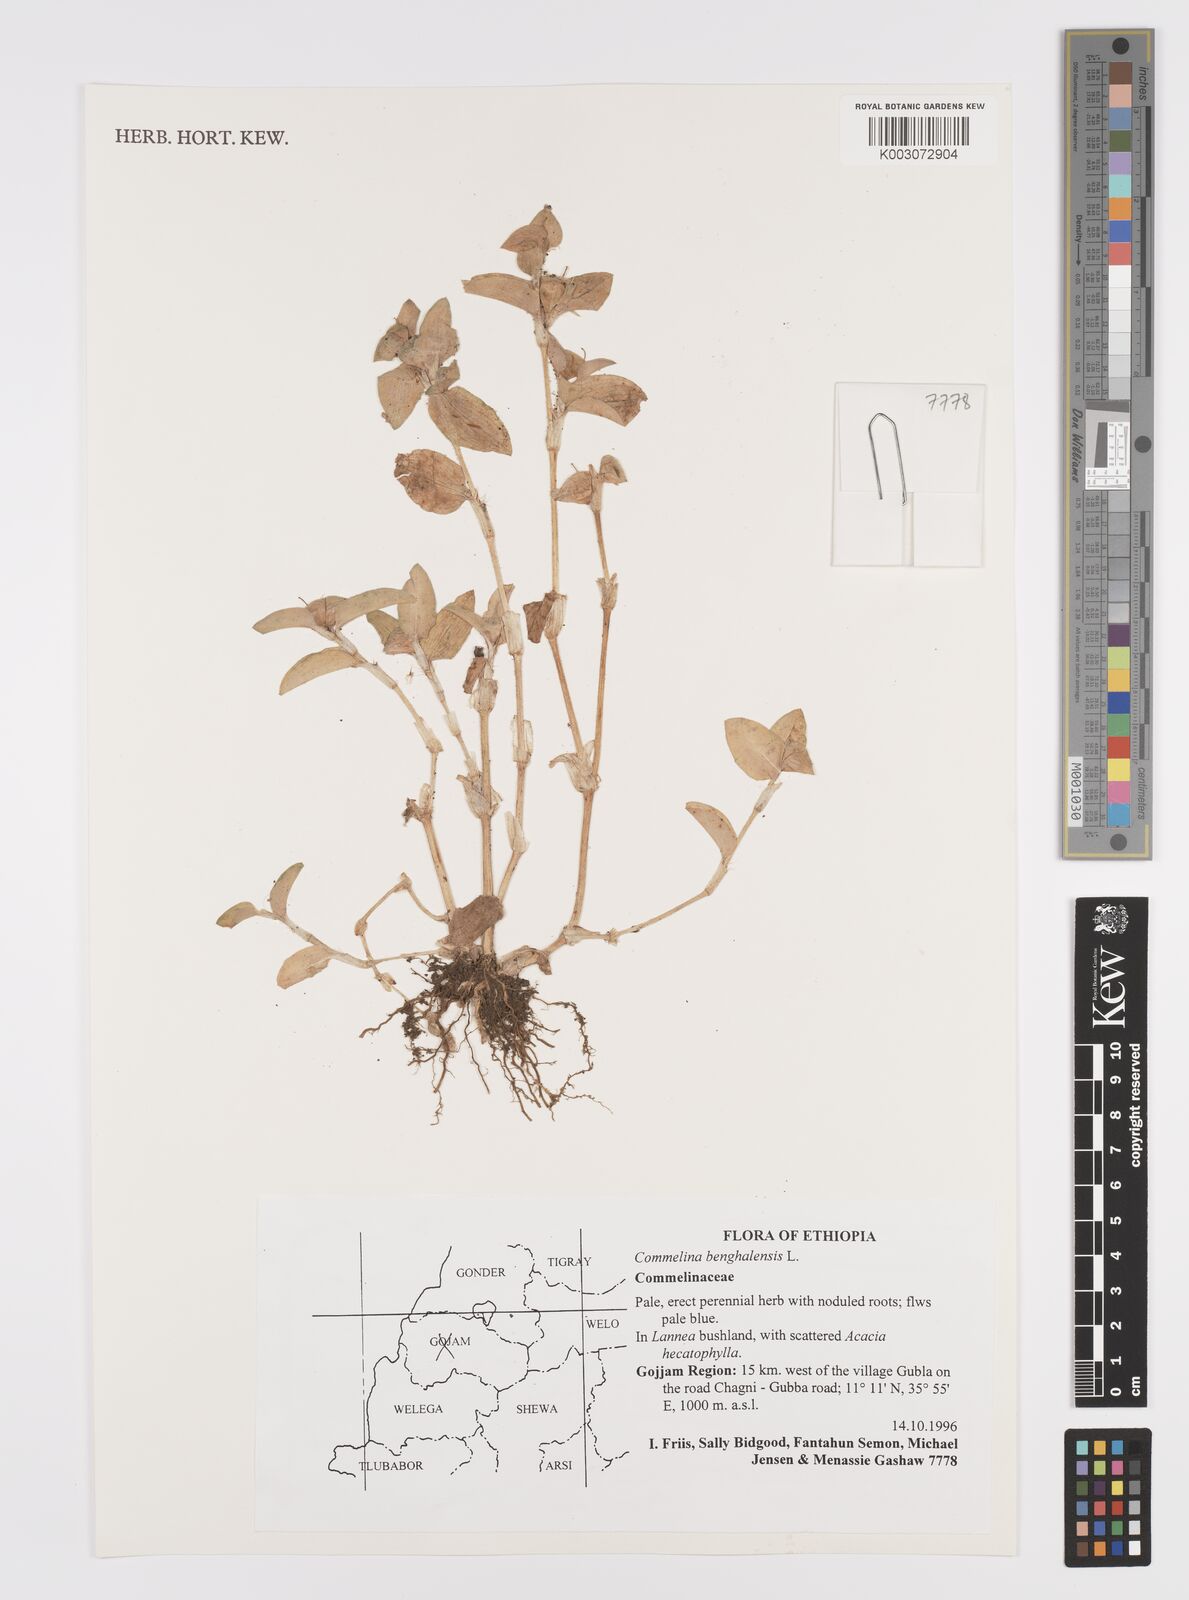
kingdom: Plantae
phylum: Tracheophyta
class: Liliopsida
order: Commelinales
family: Commelinaceae
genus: Commelina
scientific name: Commelina benghalensis
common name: Jio
